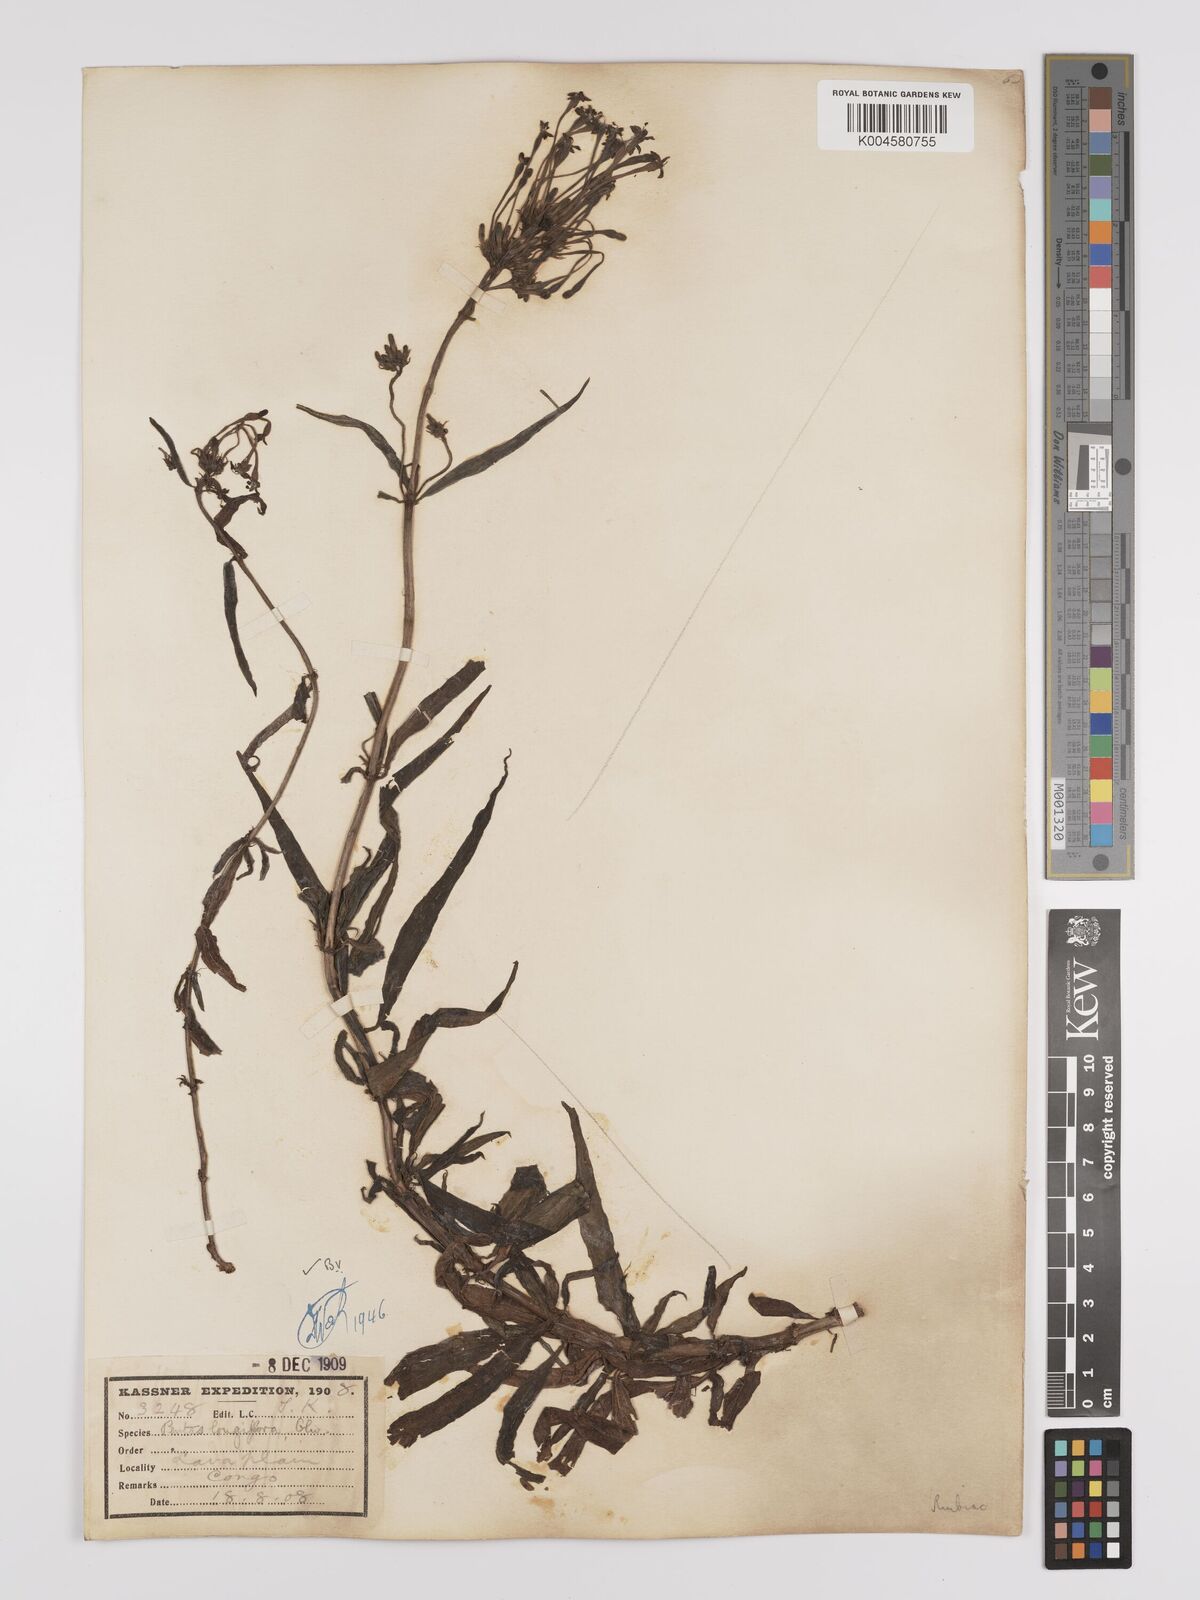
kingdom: Plantae
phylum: Tracheophyta
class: Magnoliopsida
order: Gentianales
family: Rubiaceae
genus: Dolichopentas
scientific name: Dolichopentas longiflora
